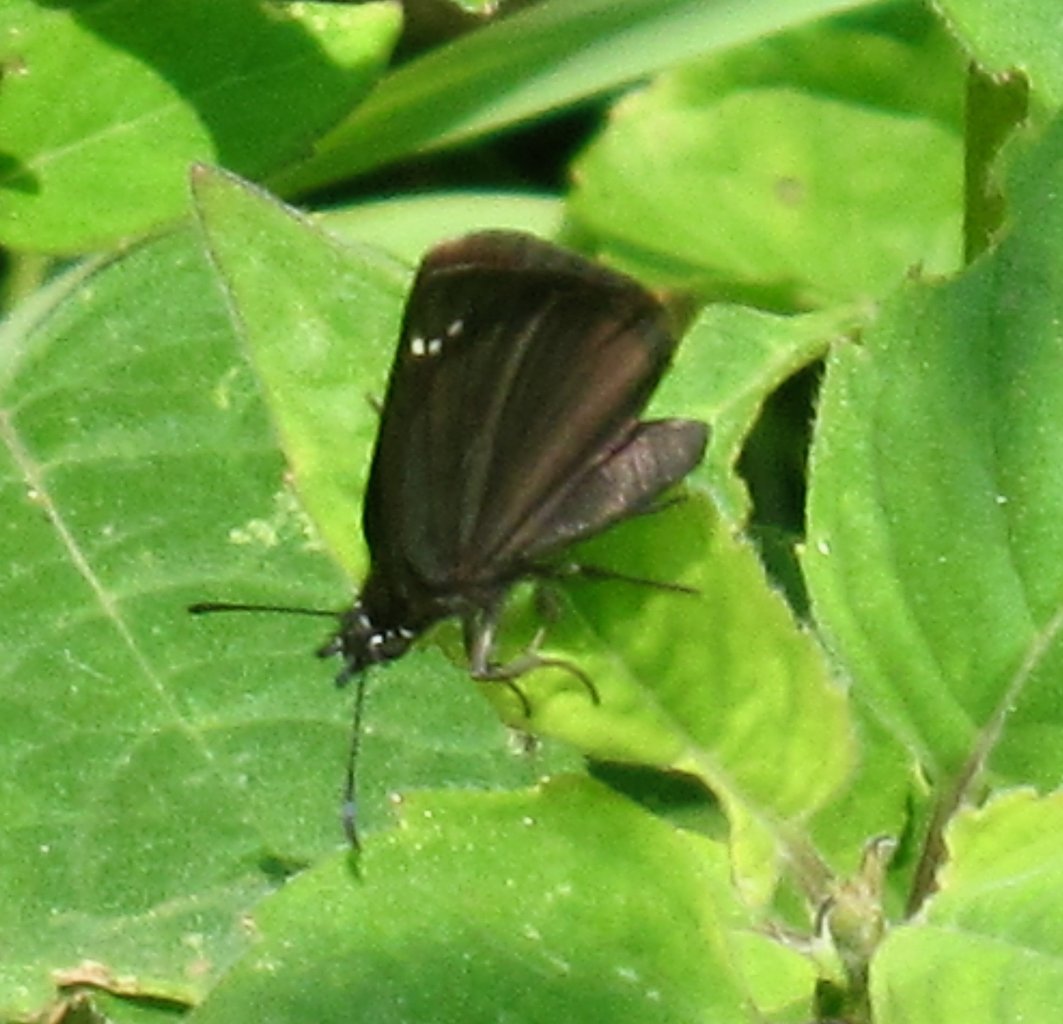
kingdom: Animalia
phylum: Arthropoda
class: Insecta
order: Lepidoptera
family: Hesperiidae
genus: Pholisora
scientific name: Pholisora catullus
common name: Common Sootywing
